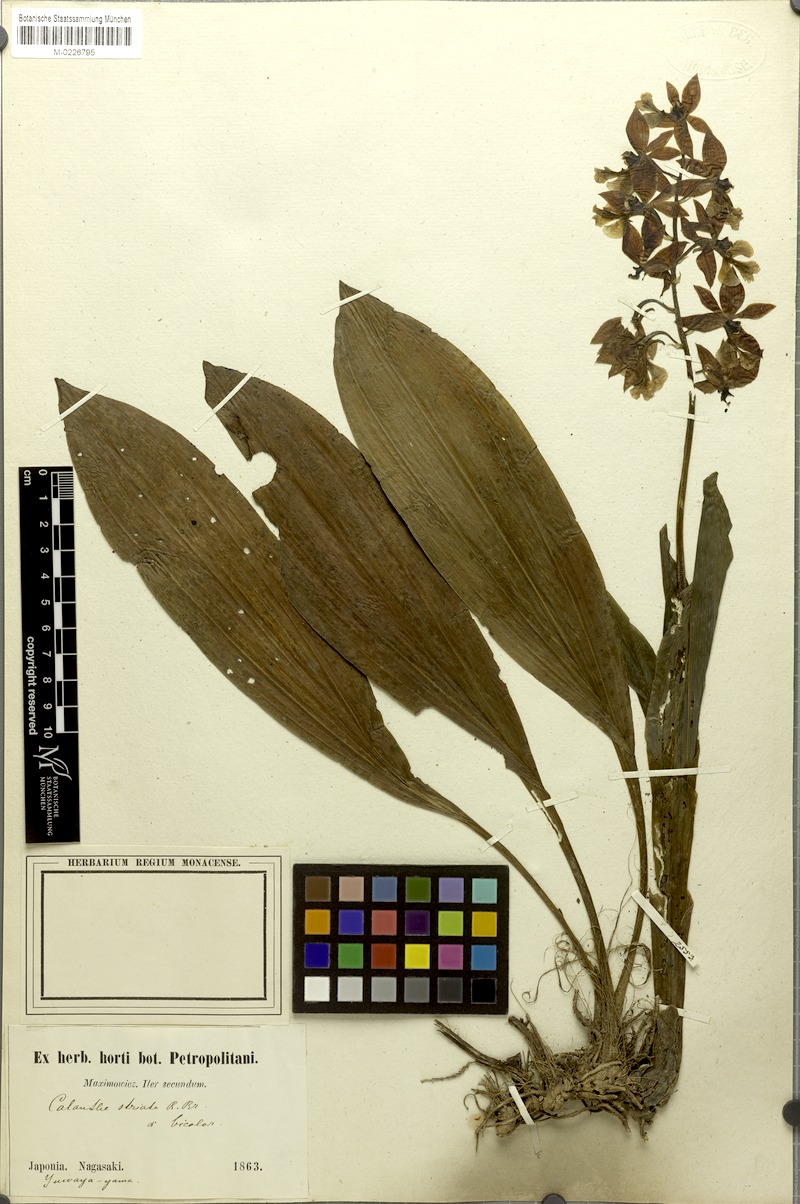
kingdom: Plantae
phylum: Tracheophyta
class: Liliopsida
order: Asparagales
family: Orchidaceae
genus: Calanthe
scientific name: Calanthe striata
